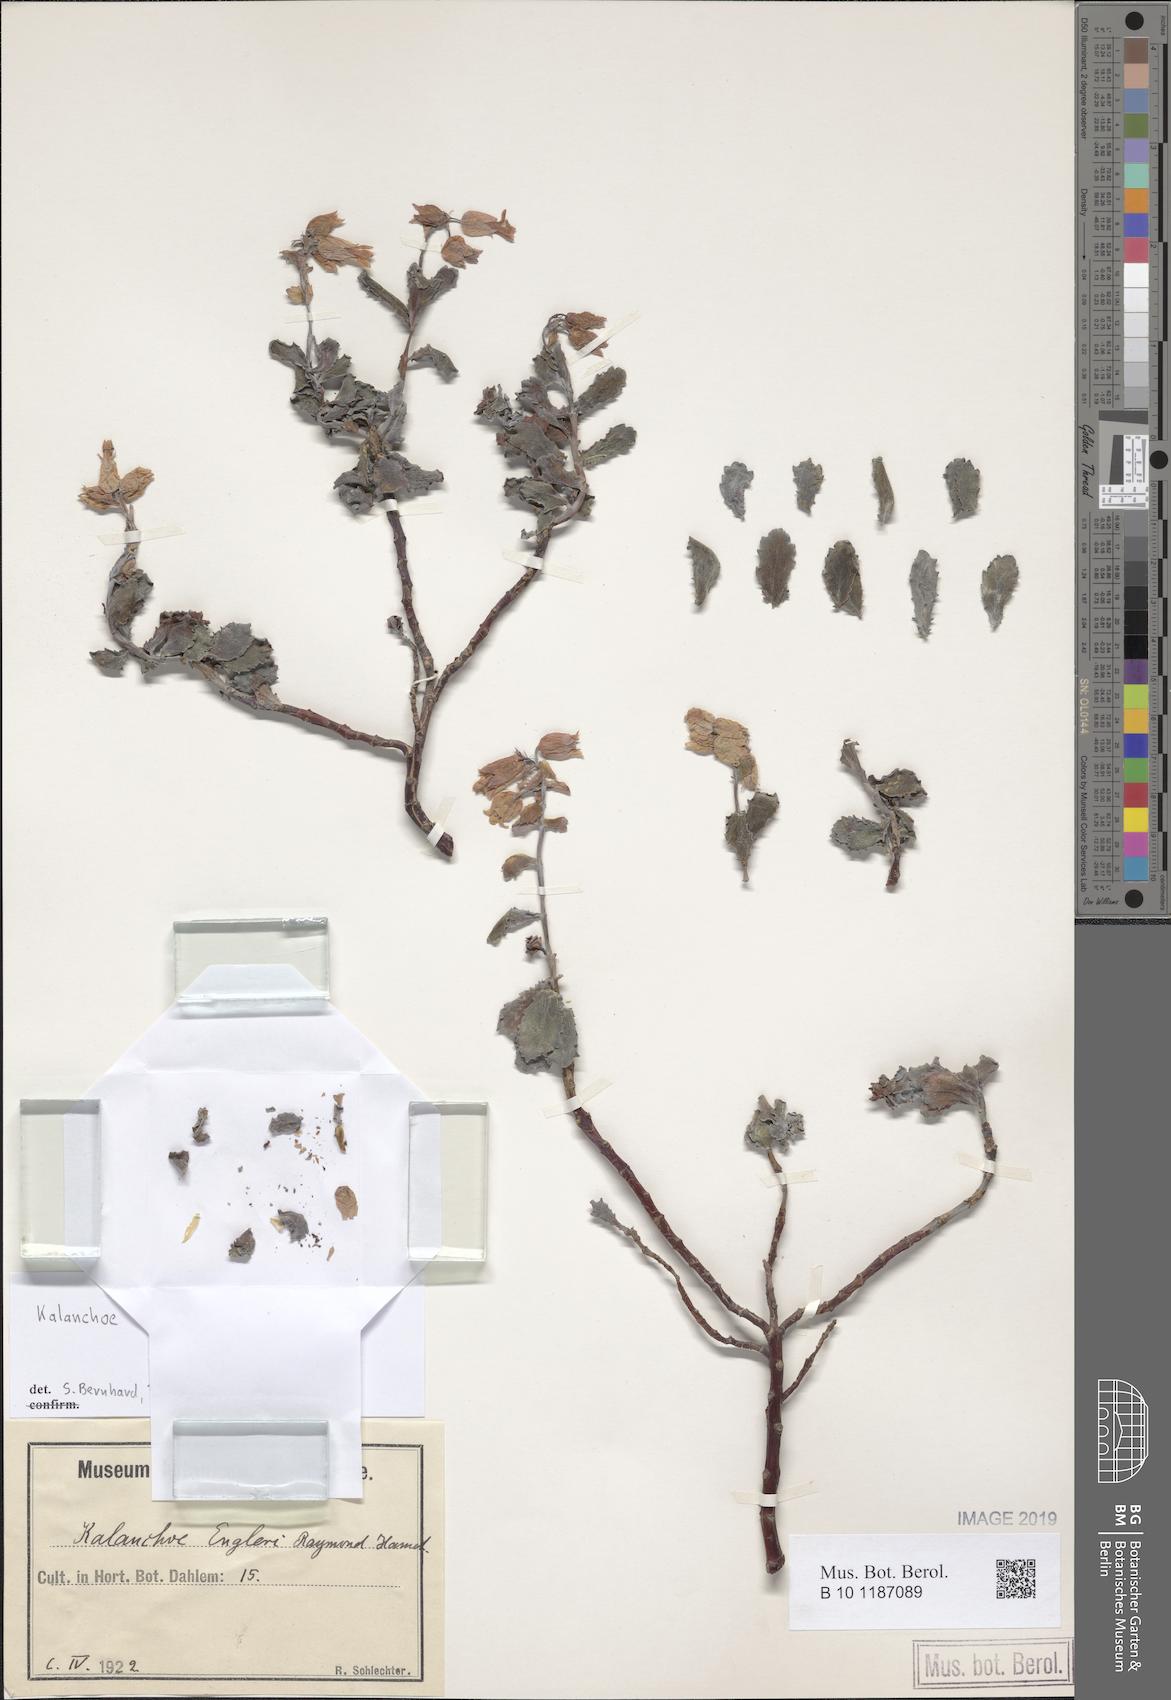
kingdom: Plantae
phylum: Tracheophyta
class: Magnoliopsida
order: Saxifragales
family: Crassulaceae
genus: Kalanchoe
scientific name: Kalanchoe
